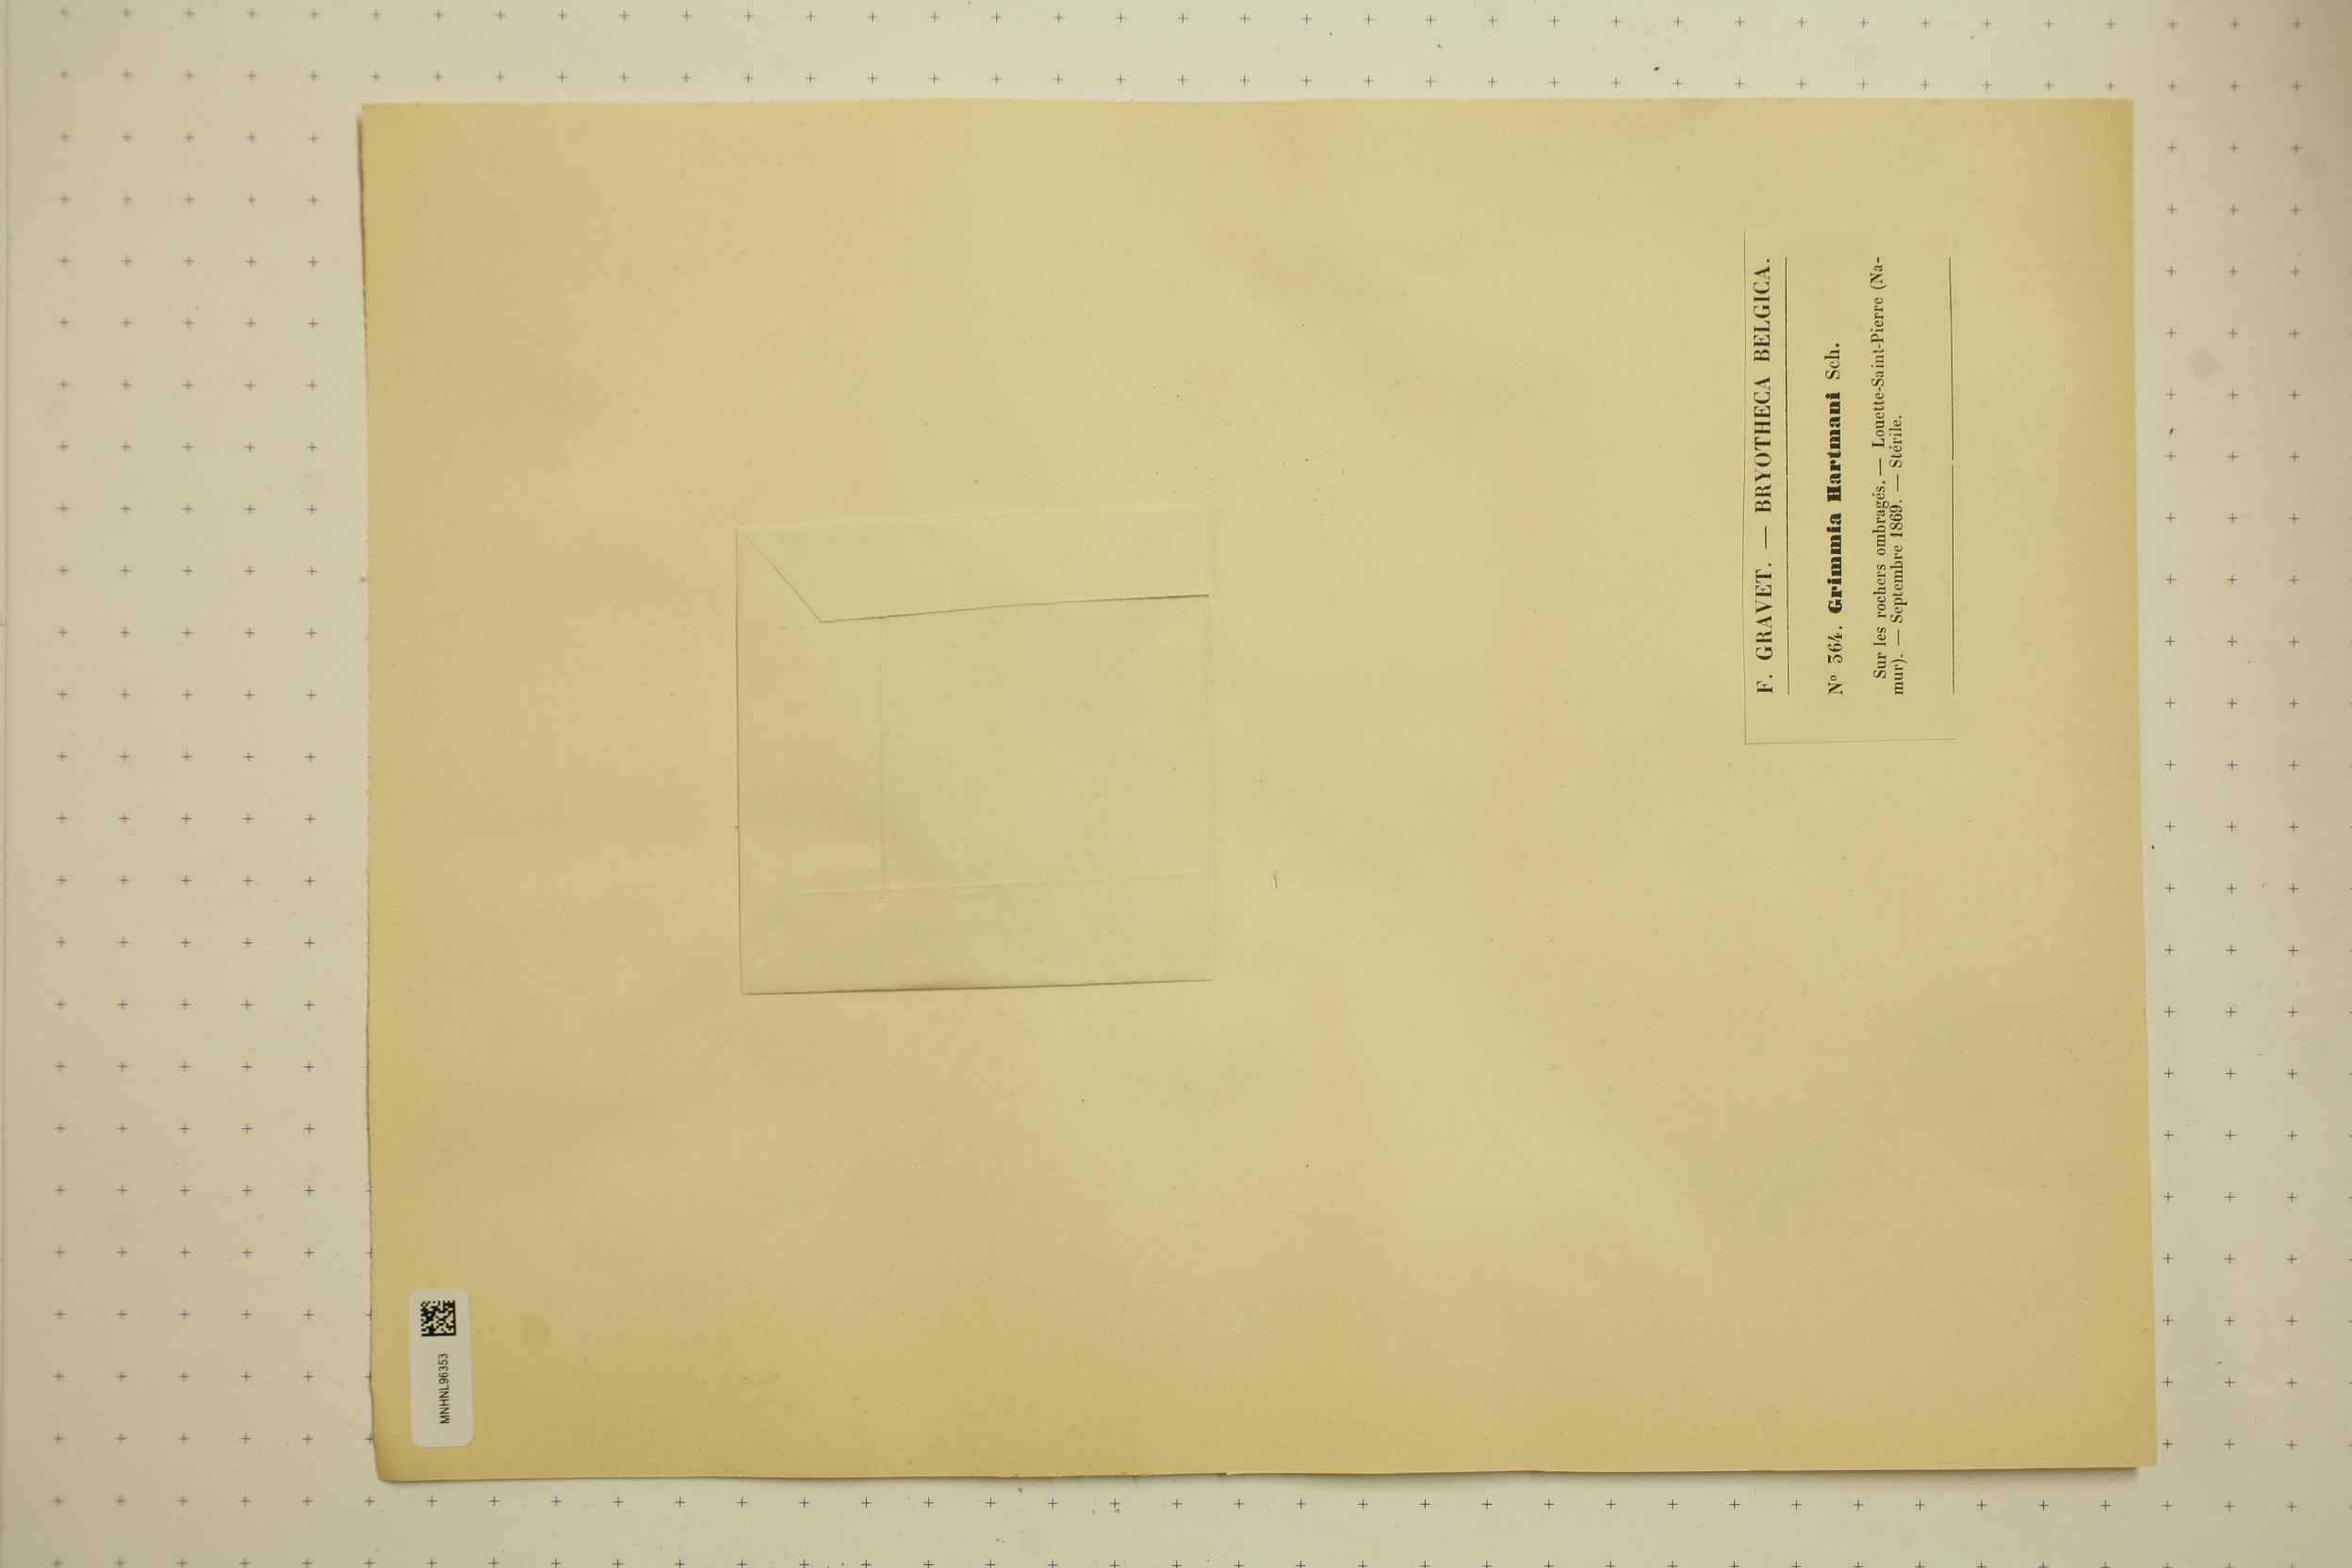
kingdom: Plantae
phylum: Bryophyta
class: Bryopsida
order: Grimmiales
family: Grimmiaceae
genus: Grimmia
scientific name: Grimmia hartmanii
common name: Hartman's grimmia
